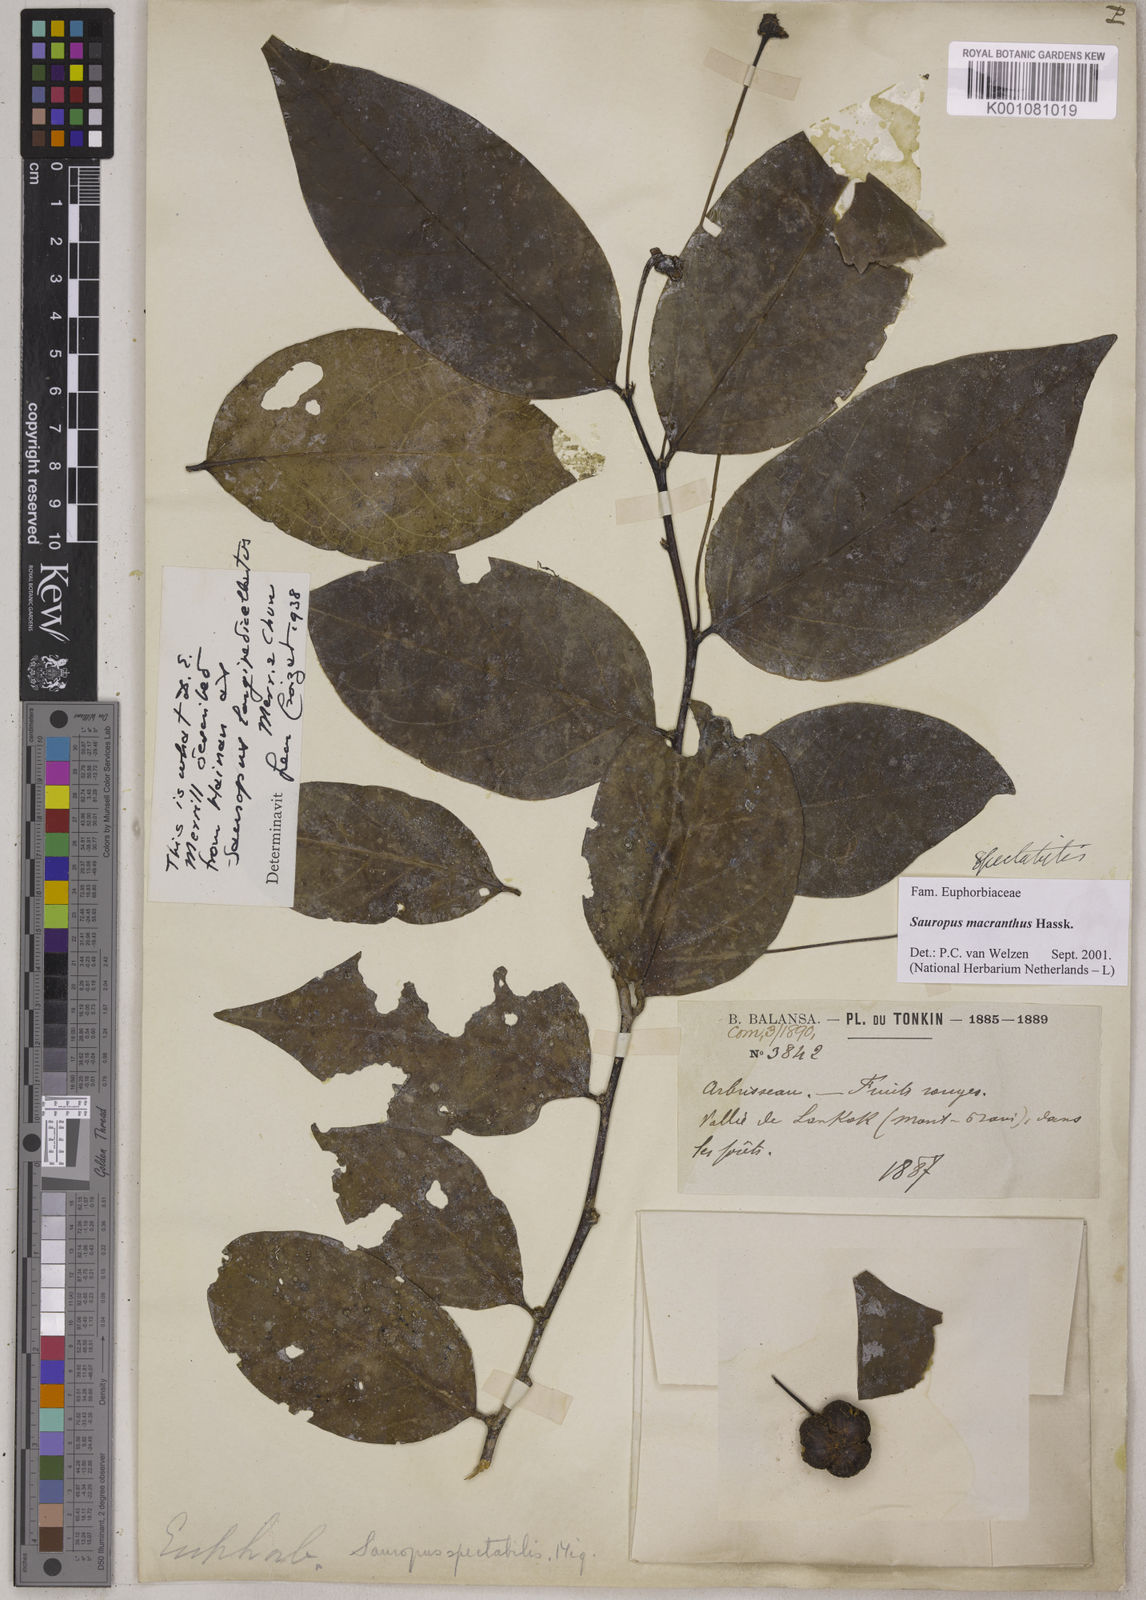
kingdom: Plantae
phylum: Tracheophyta
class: Magnoliopsida
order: Malpighiales
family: Phyllanthaceae
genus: Breynia
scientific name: Breynia macrantha
